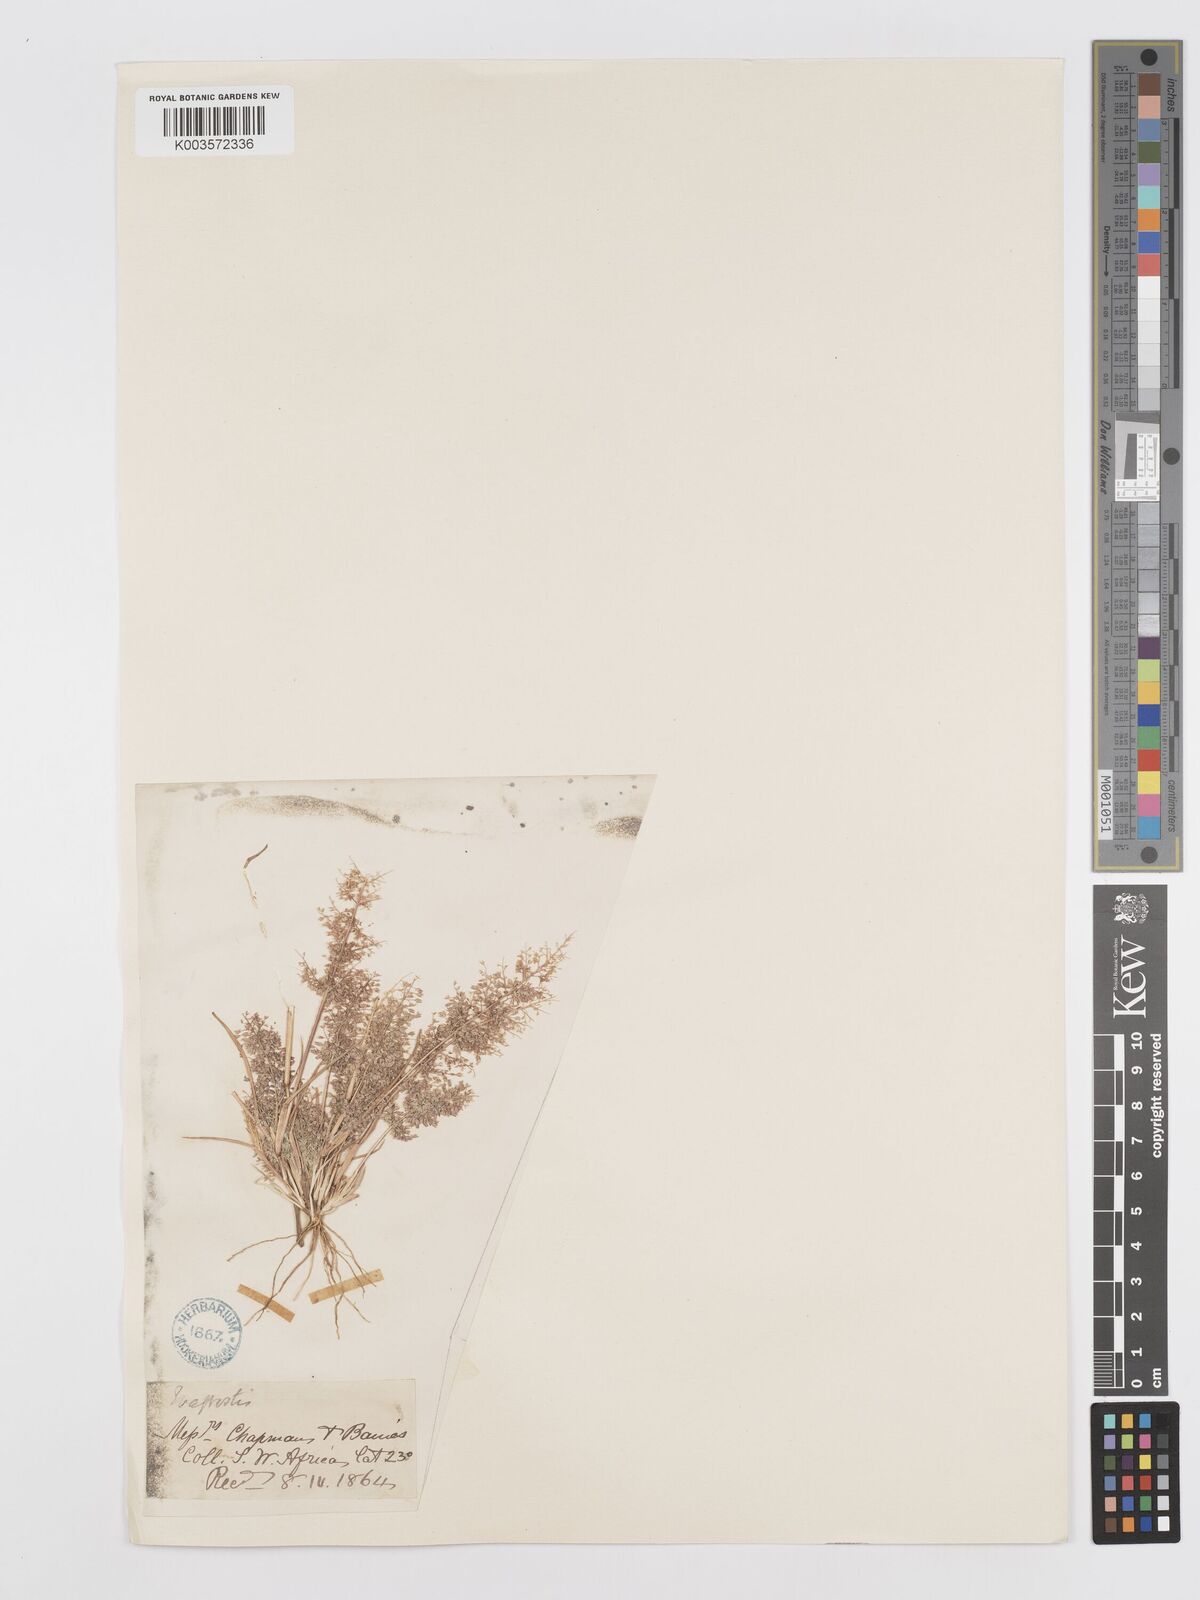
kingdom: Plantae
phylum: Tracheophyta
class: Liliopsida
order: Poales
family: Poaceae
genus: Eragrostis
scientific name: Eragrostis
